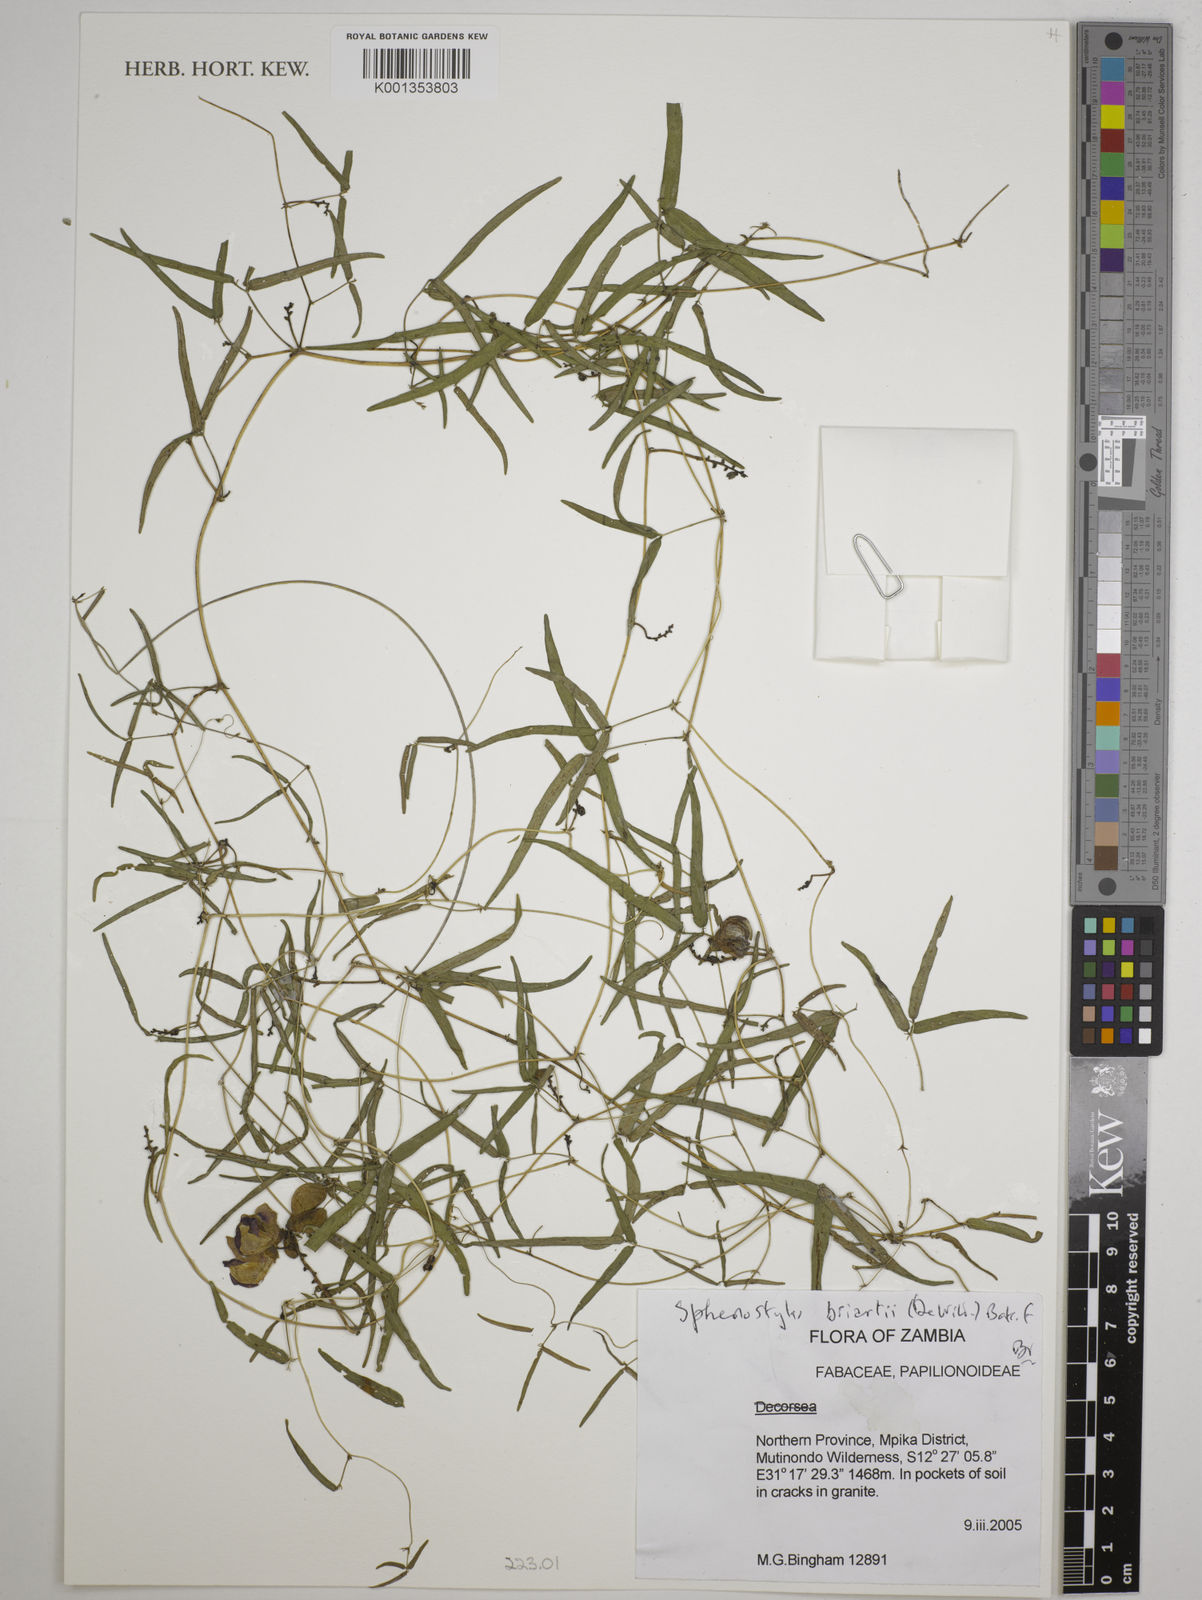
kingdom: Plantae
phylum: Tracheophyta
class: Magnoliopsida
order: Fabales
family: Fabaceae
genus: Sphenostylis
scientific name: Sphenostylis briartii
